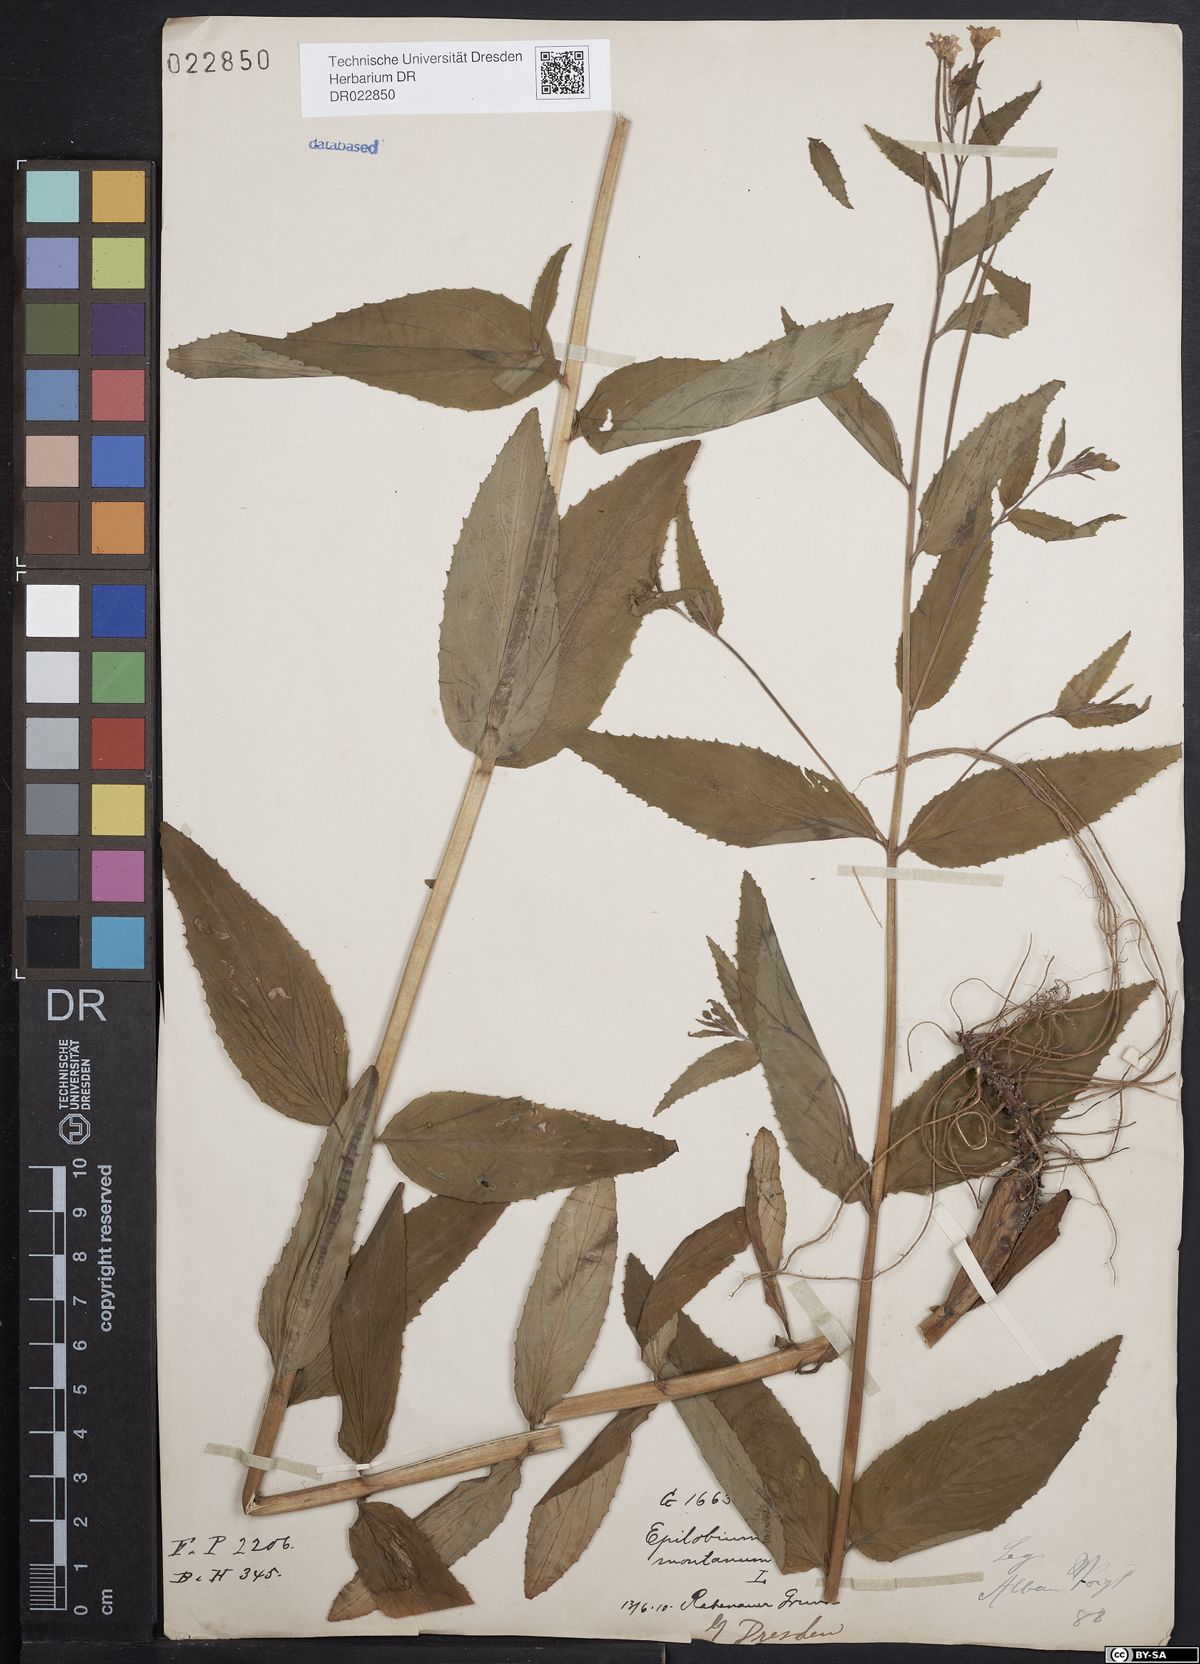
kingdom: Plantae
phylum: Tracheophyta
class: Magnoliopsida
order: Myrtales
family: Onagraceae
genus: Epilobium
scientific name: Epilobium montanum
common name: Broad-leaved willowherb
